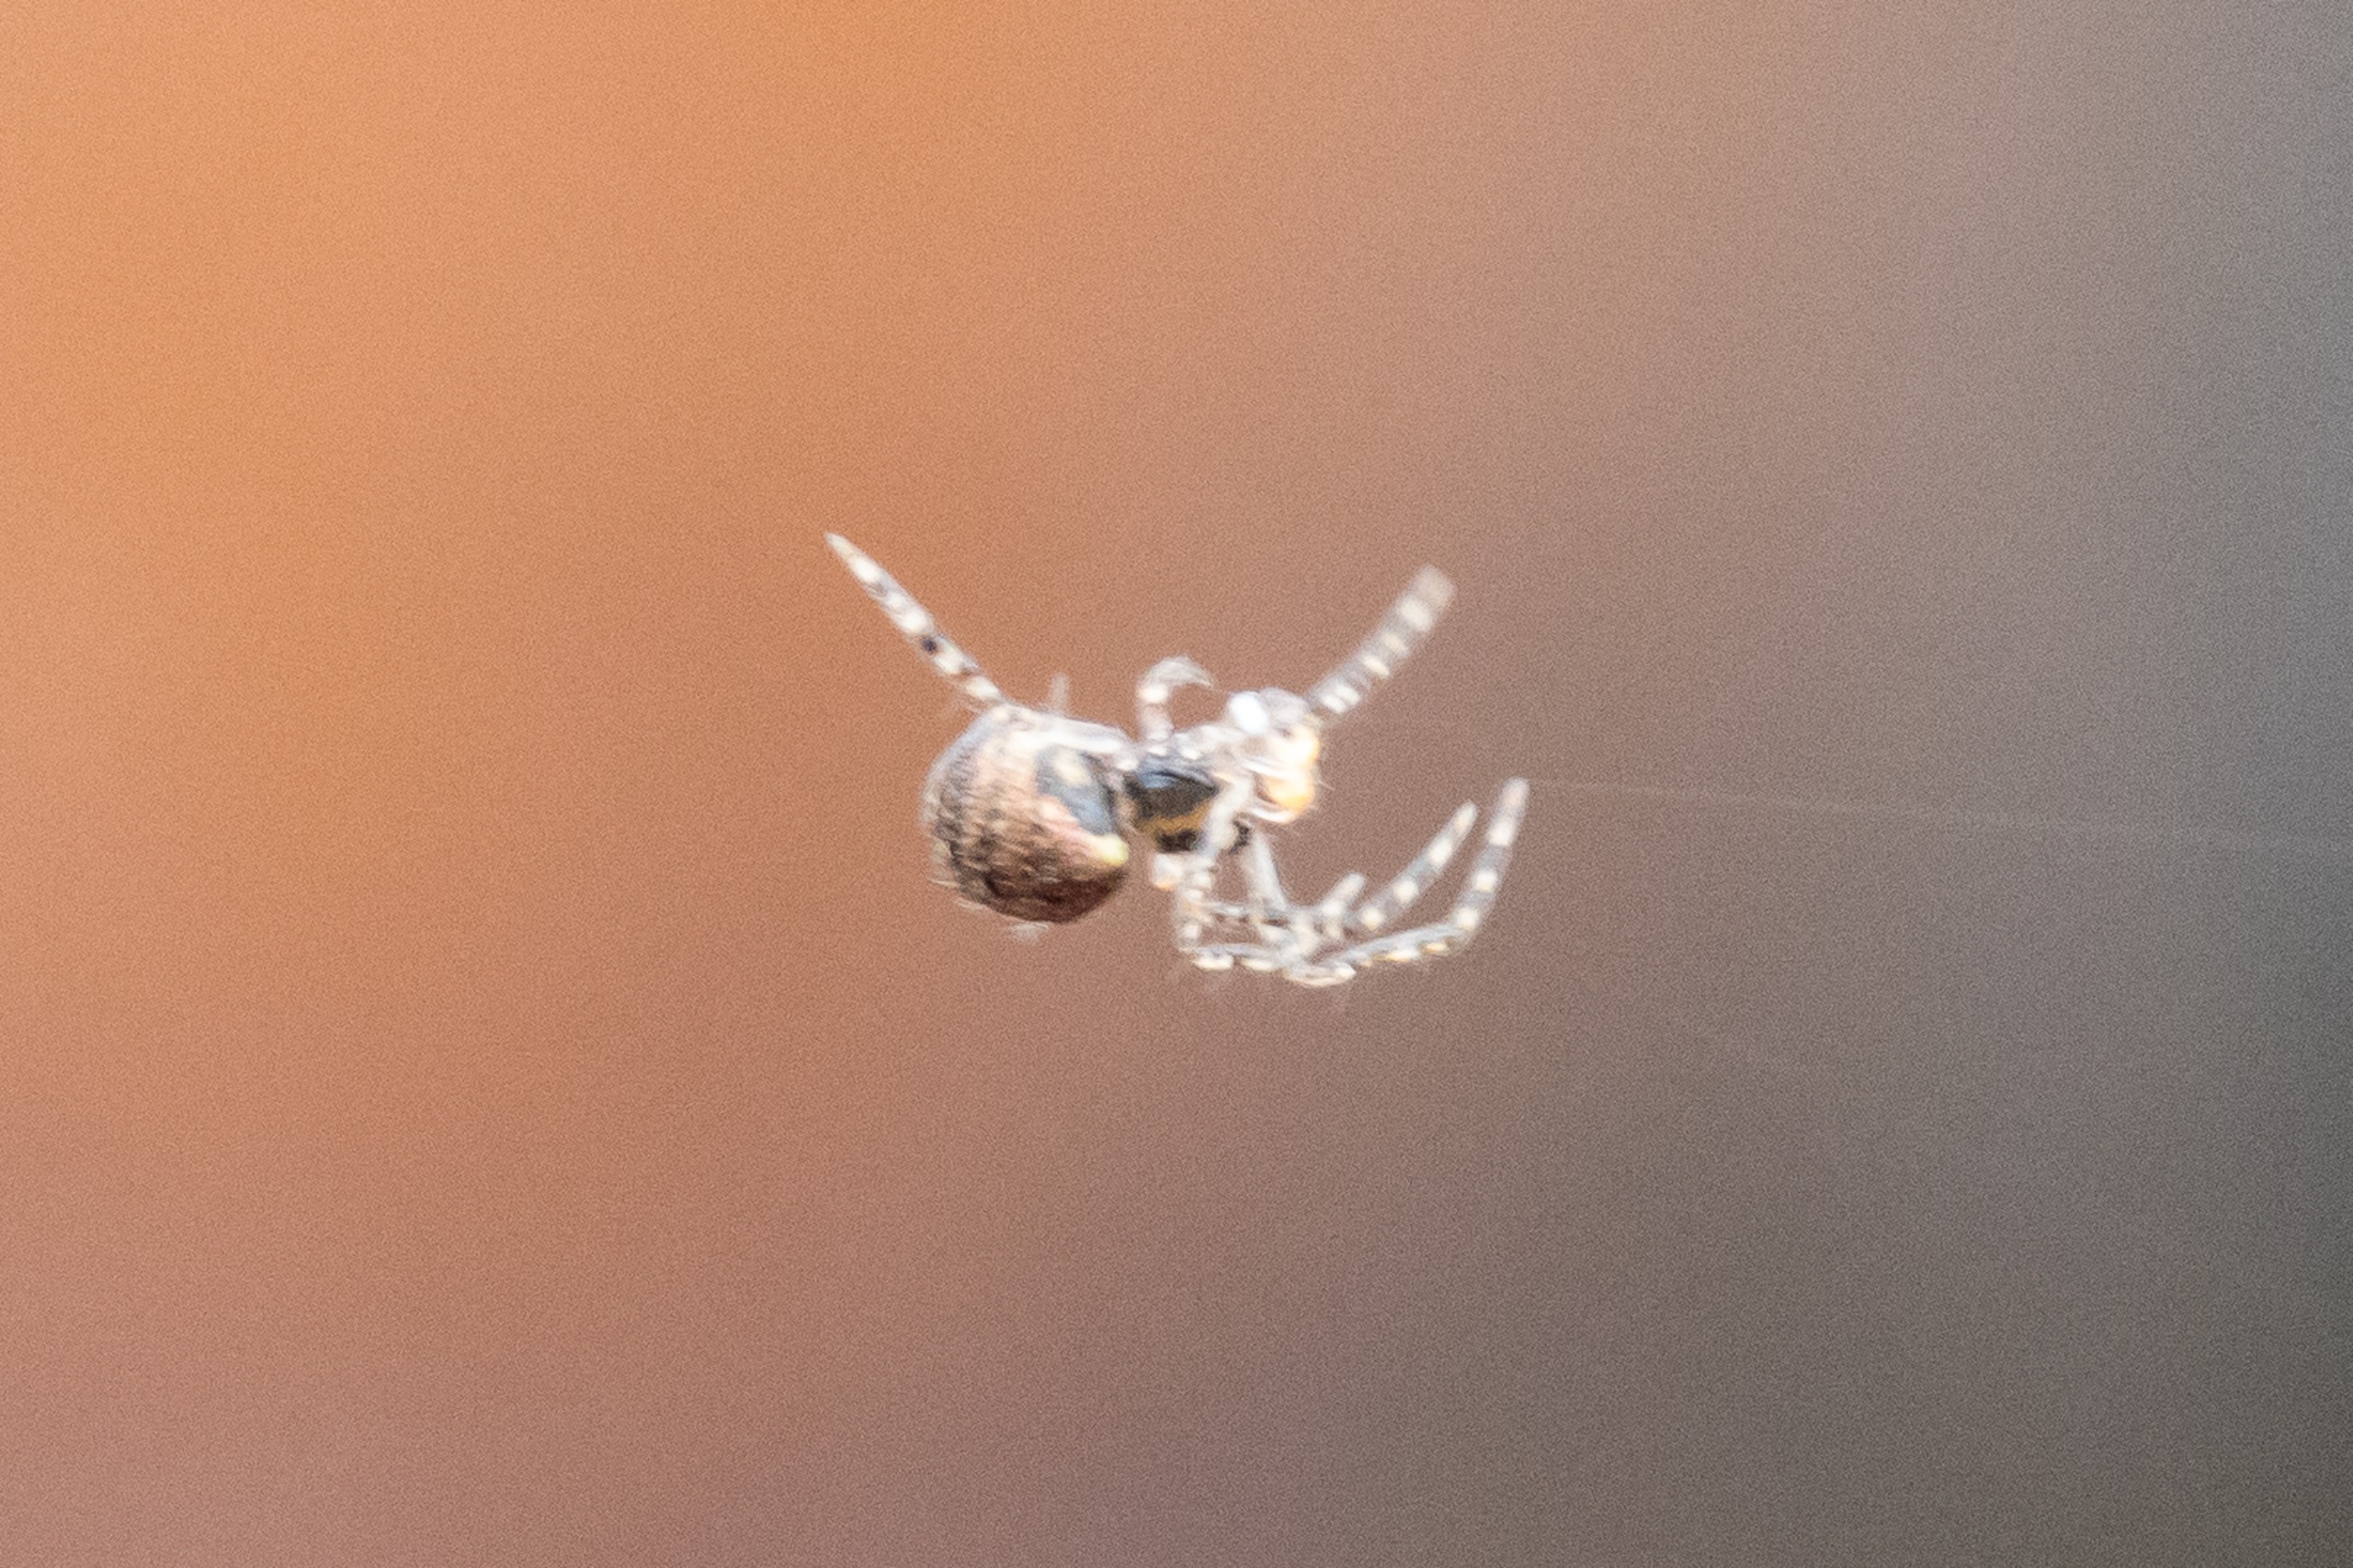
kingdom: Animalia
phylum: Arthropoda
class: Arachnida
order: Araneae
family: Theridiidae
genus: Theridion
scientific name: Theridion
